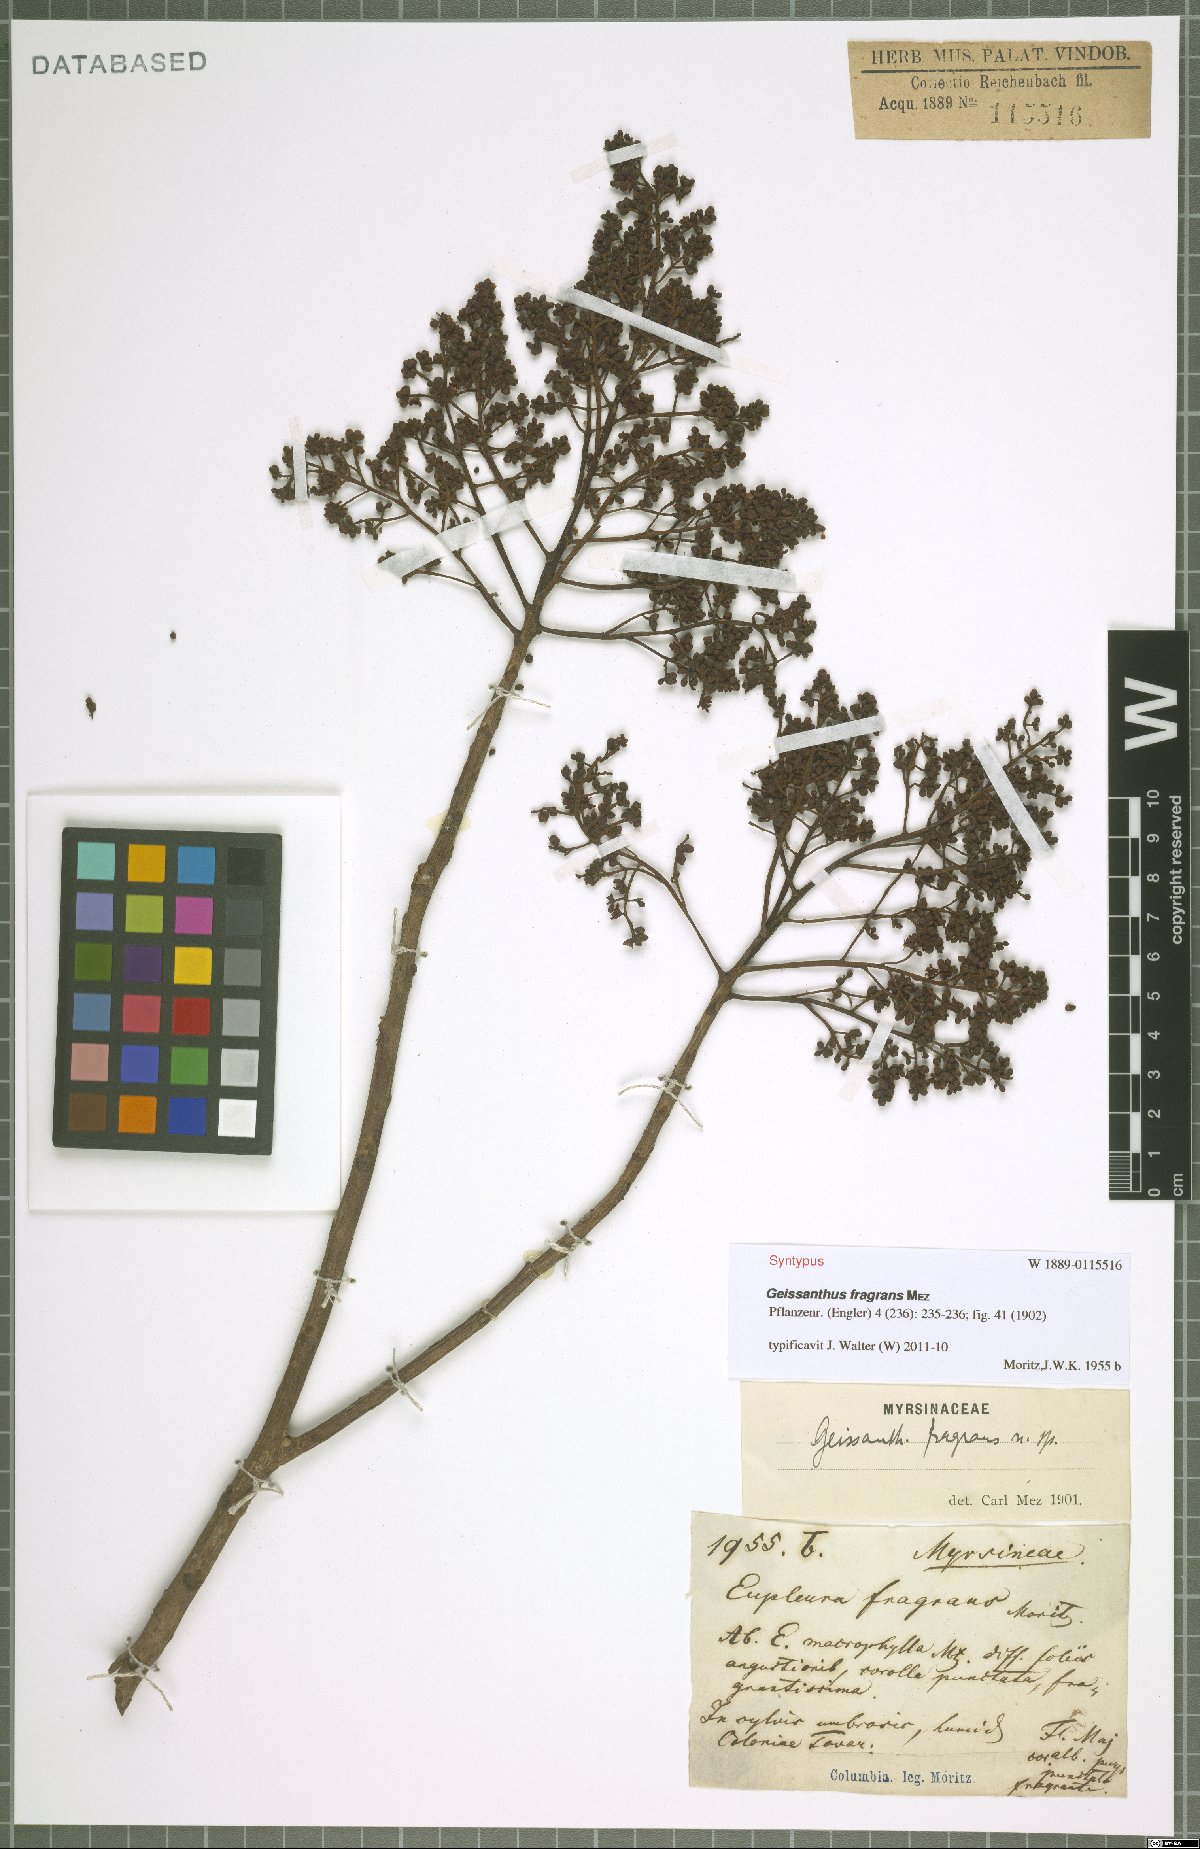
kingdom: Plantae
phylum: Tracheophyta
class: Magnoliopsida
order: Ericales
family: Primulaceae
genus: Geissanthus
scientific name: Geissanthus fragrans
